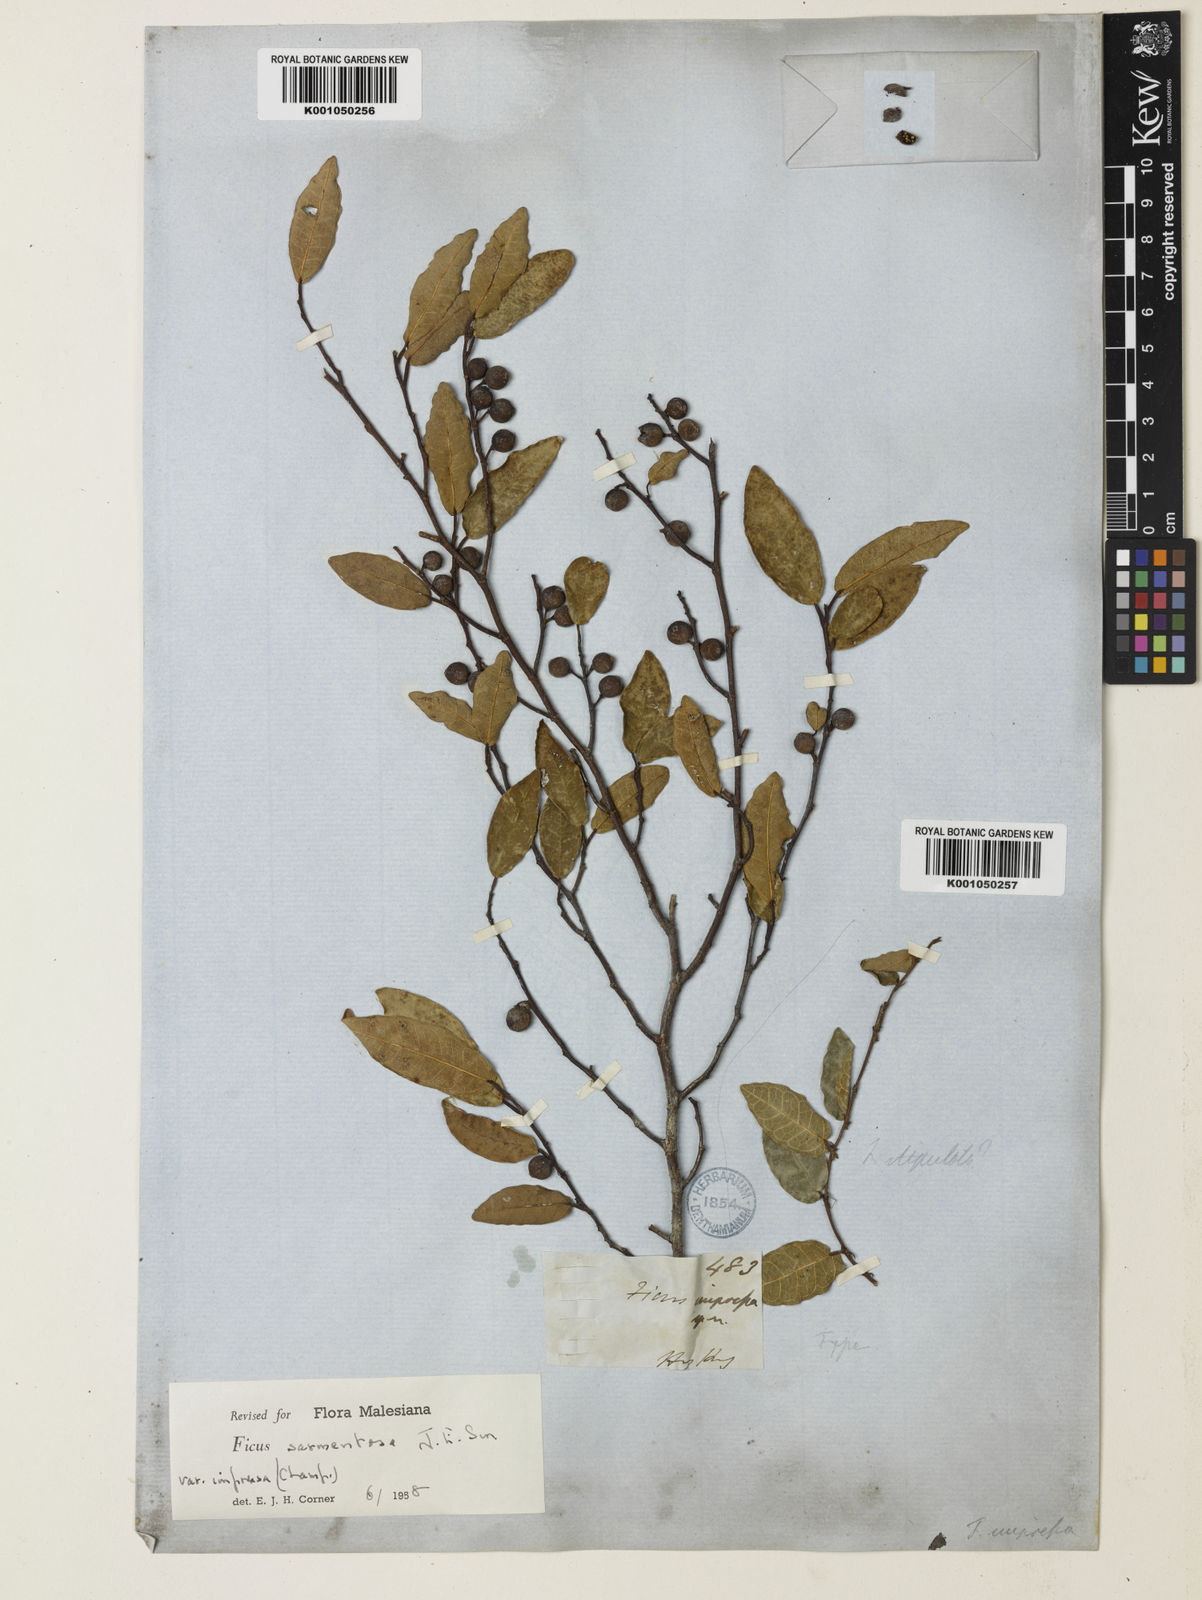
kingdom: Plantae
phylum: Tracheophyta
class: Magnoliopsida
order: Rosales
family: Moraceae
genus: Ficus
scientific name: Ficus sarmentosa
